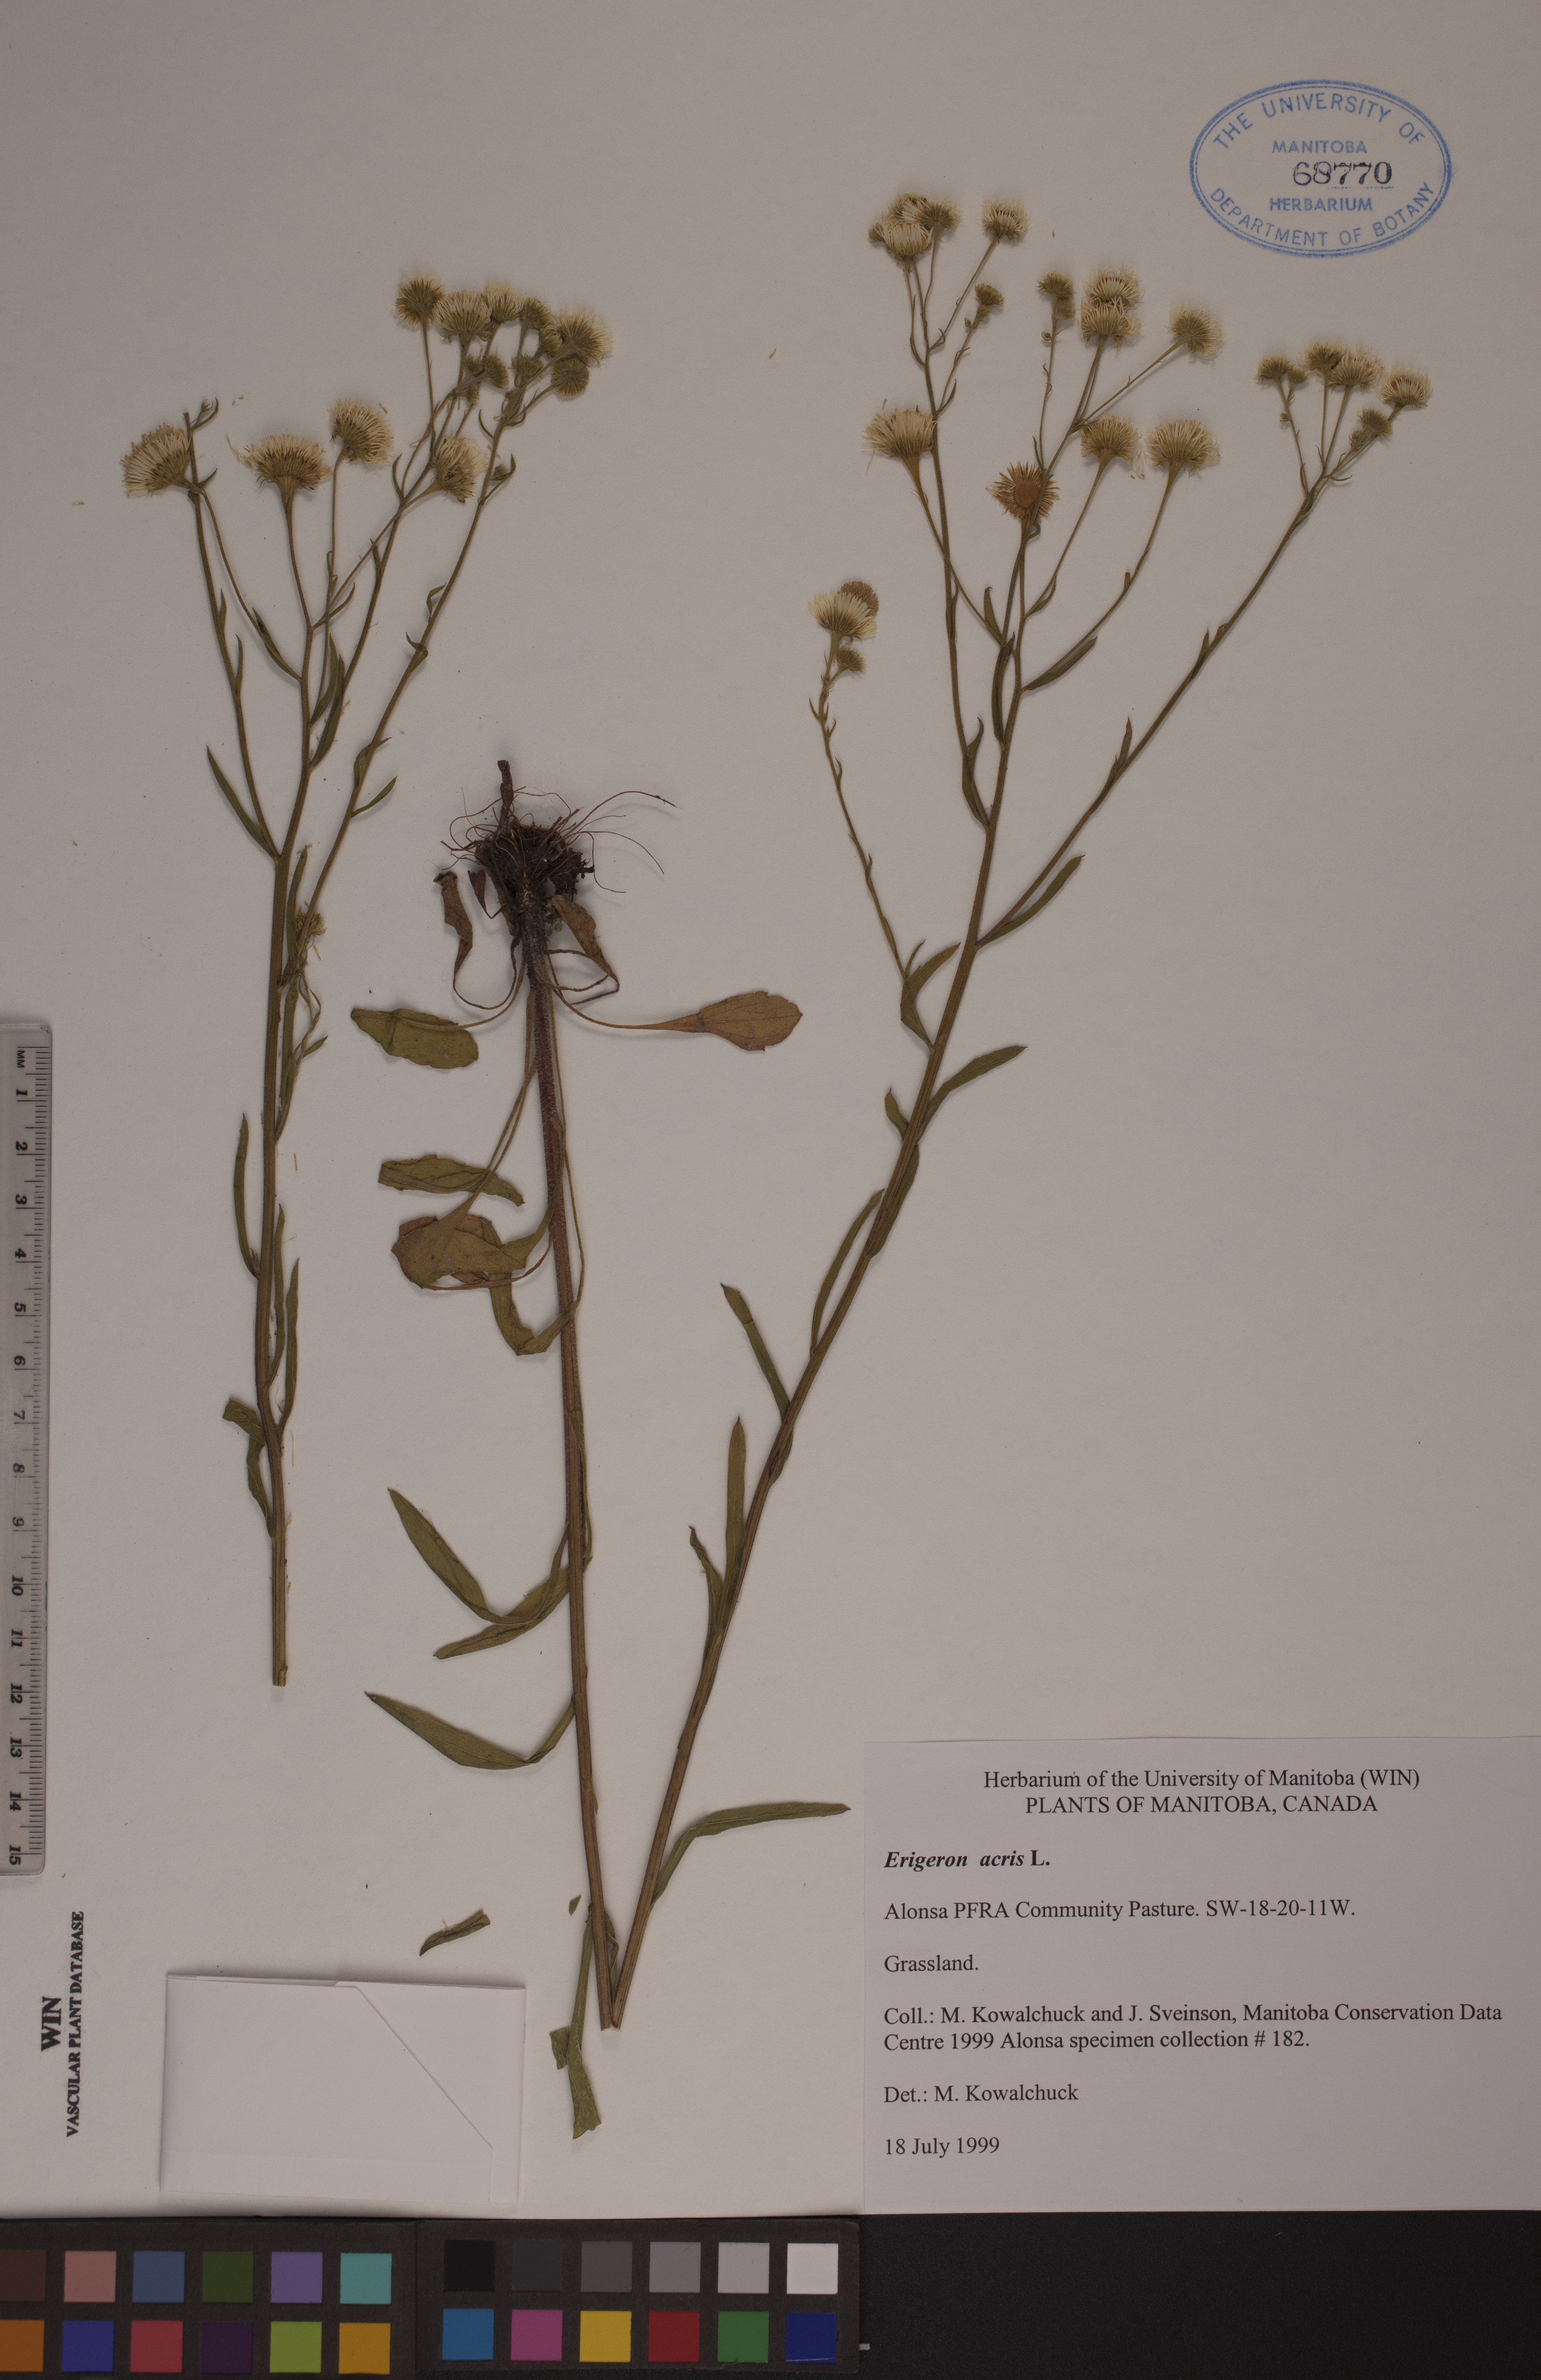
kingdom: Plantae
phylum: Tracheophyta
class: Magnoliopsida
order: Asterales
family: Asteraceae
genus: Erigeron
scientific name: Erigeron acris
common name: Blue fleabane
